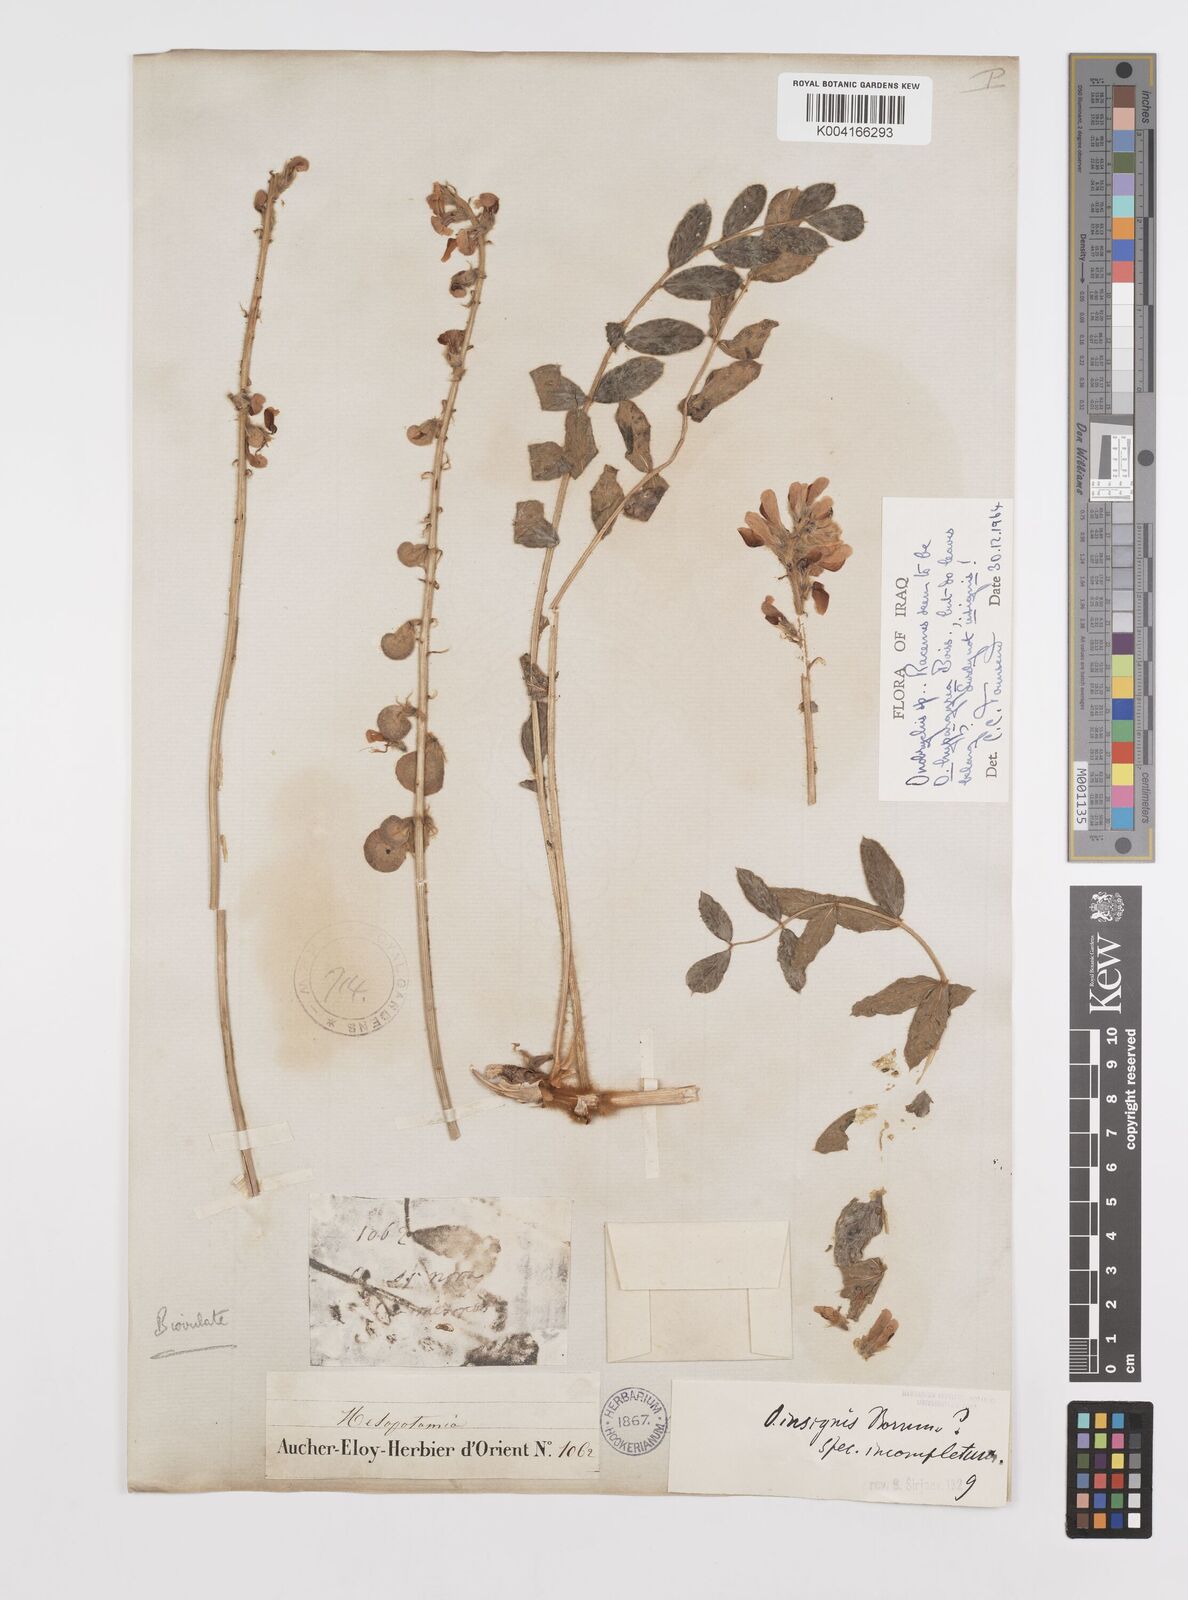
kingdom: Plantae
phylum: Tracheophyta
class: Magnoliopsida
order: Fabales
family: Fabaceae
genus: Onobrychis
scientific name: Onobrychis pallasii
